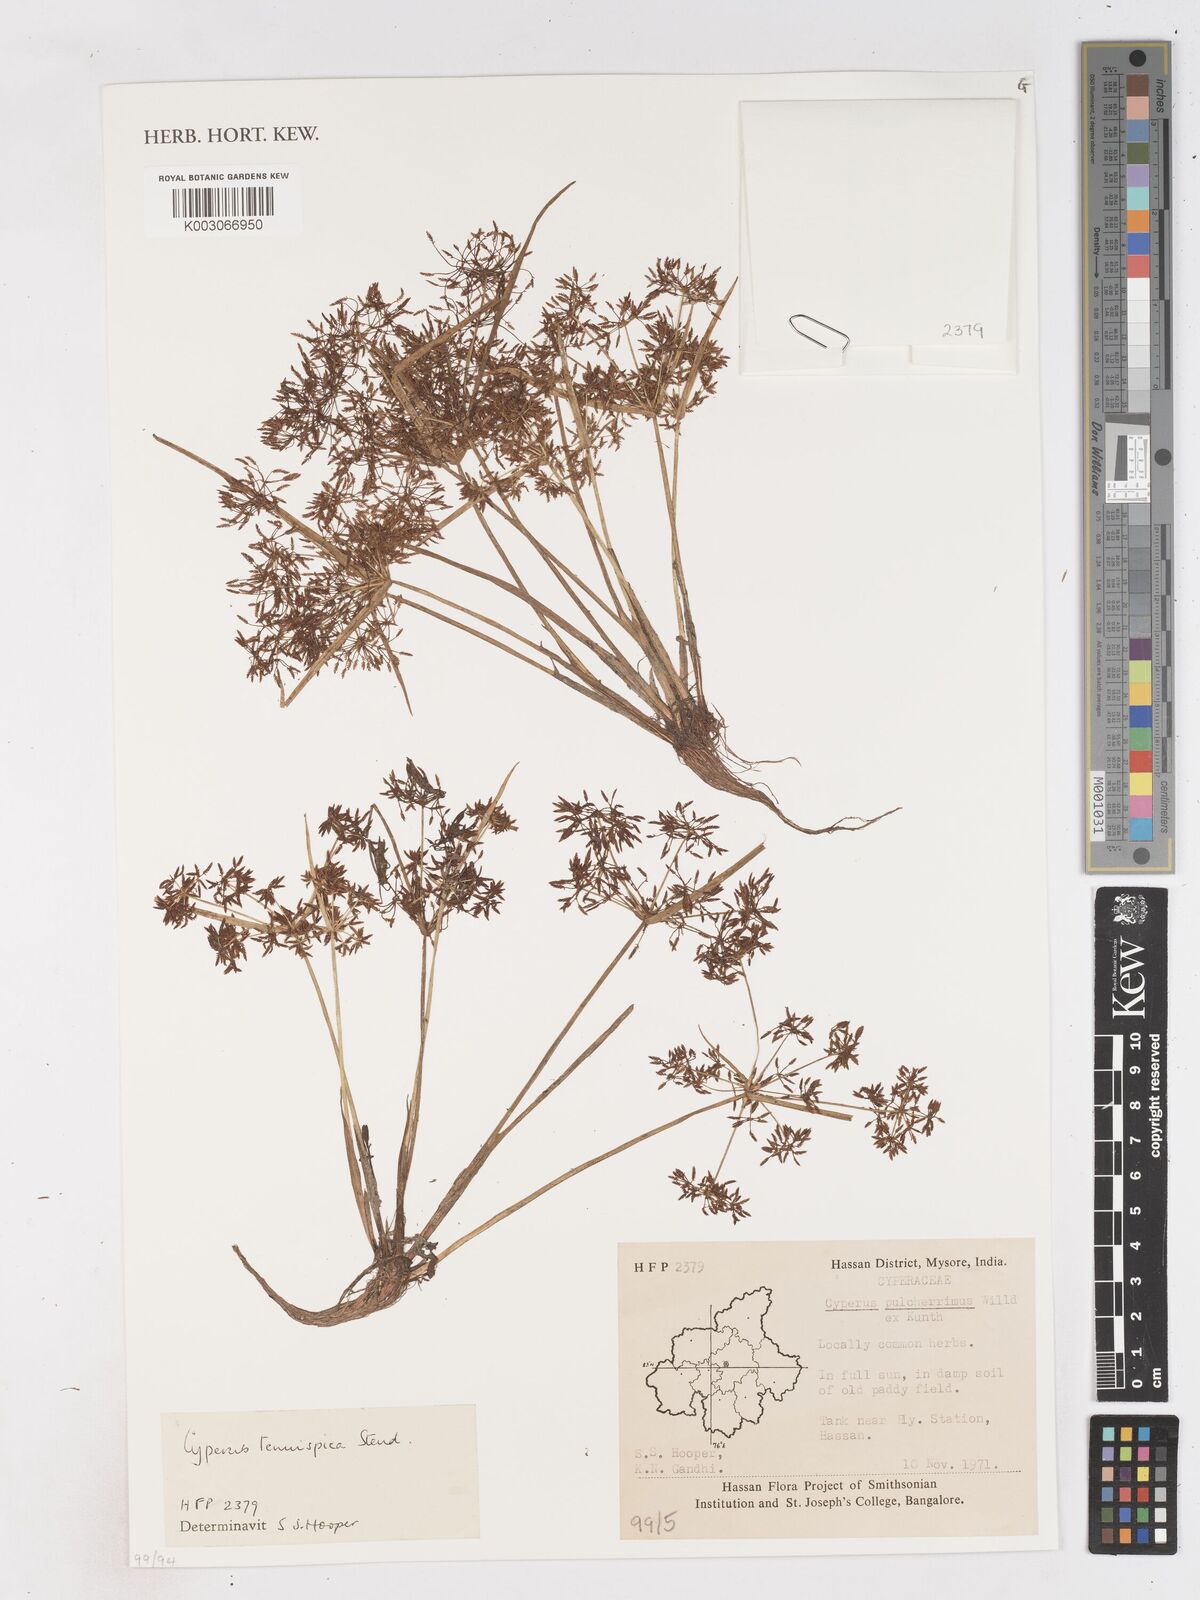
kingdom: Plantae
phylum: Tracheophyta
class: Liliopsida
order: Poales
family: Cyperaceae
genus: Cyperus
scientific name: Cyperus tenuispica
